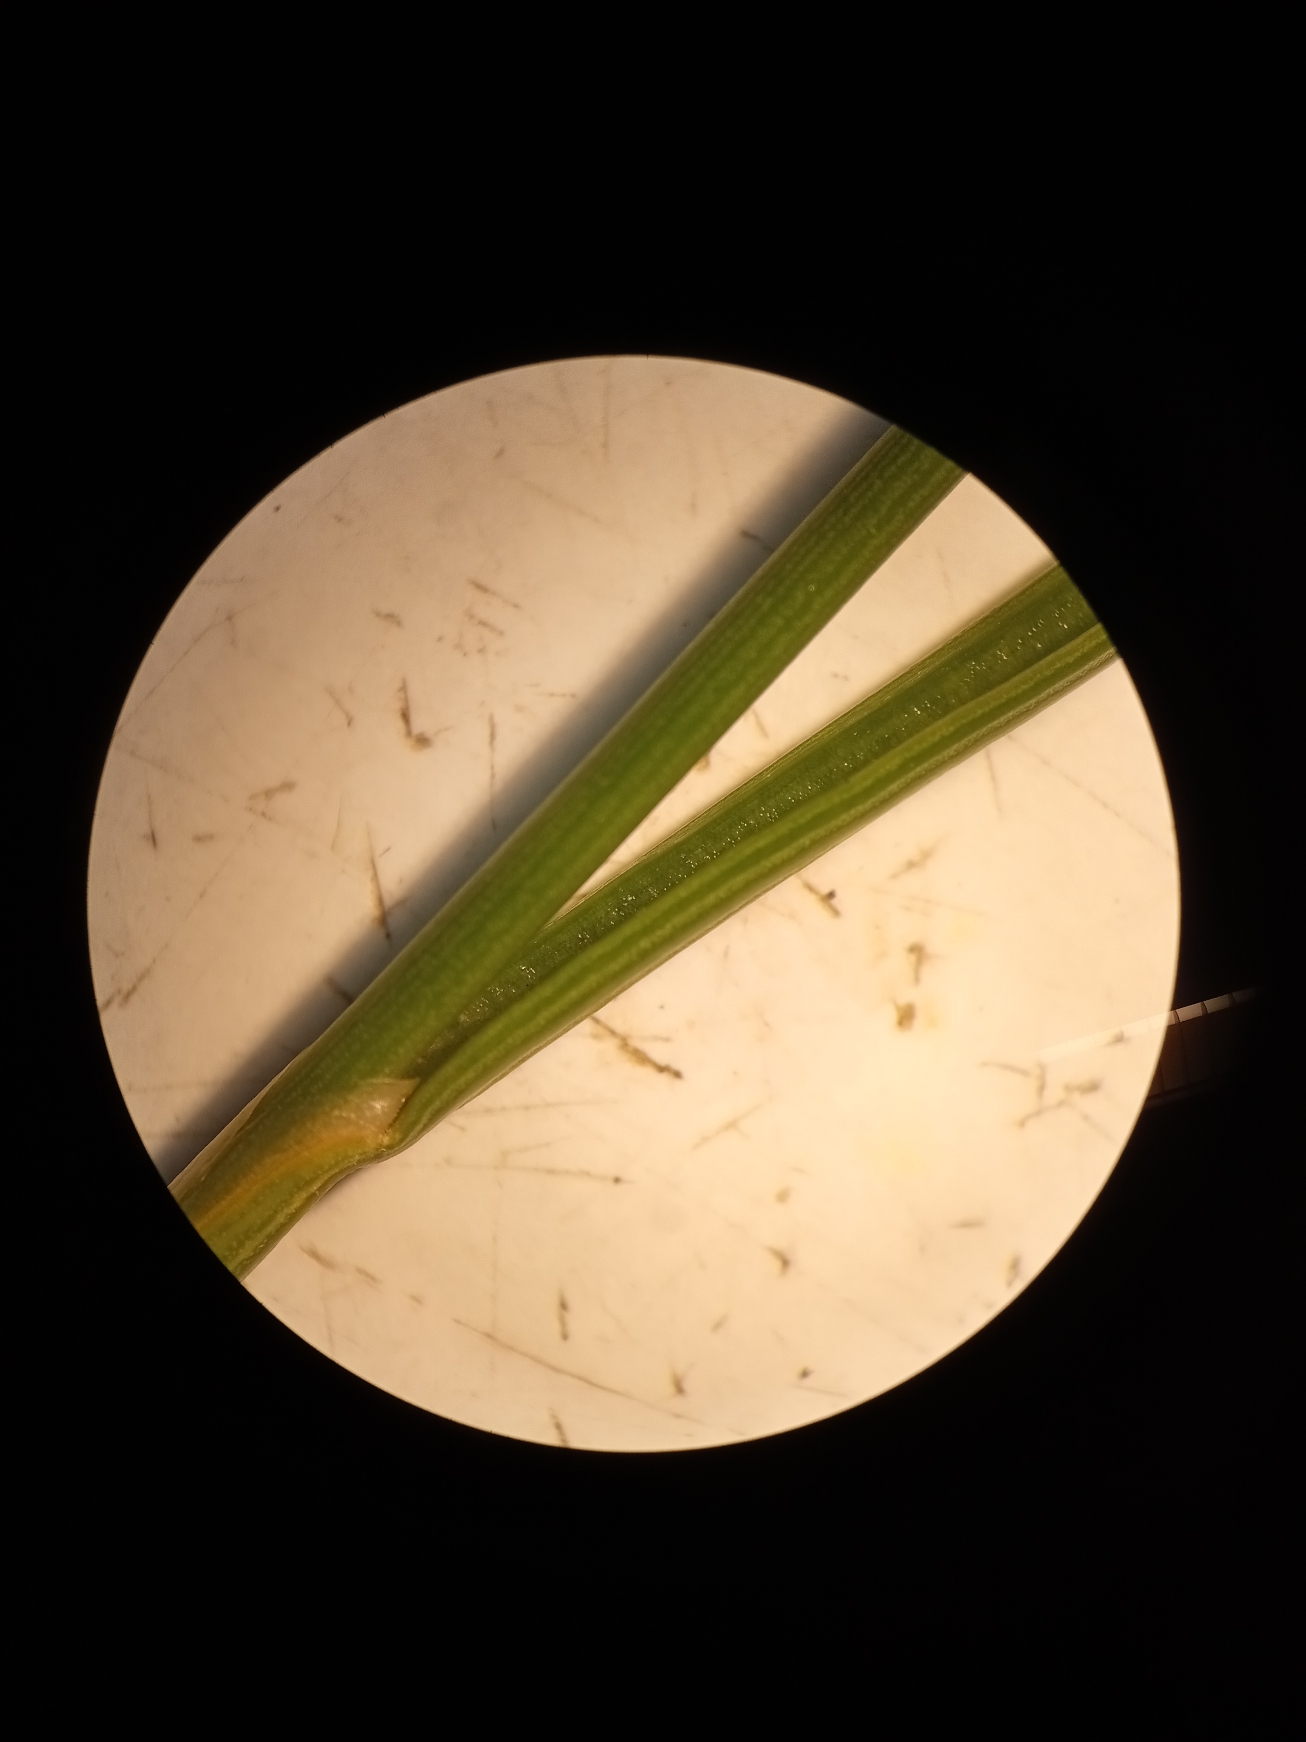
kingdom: Plantae
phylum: Tracheophyta
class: Liliopsida
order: Poales
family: Juncaceae
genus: Juncus
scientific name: Juncus gerardi
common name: Harril
